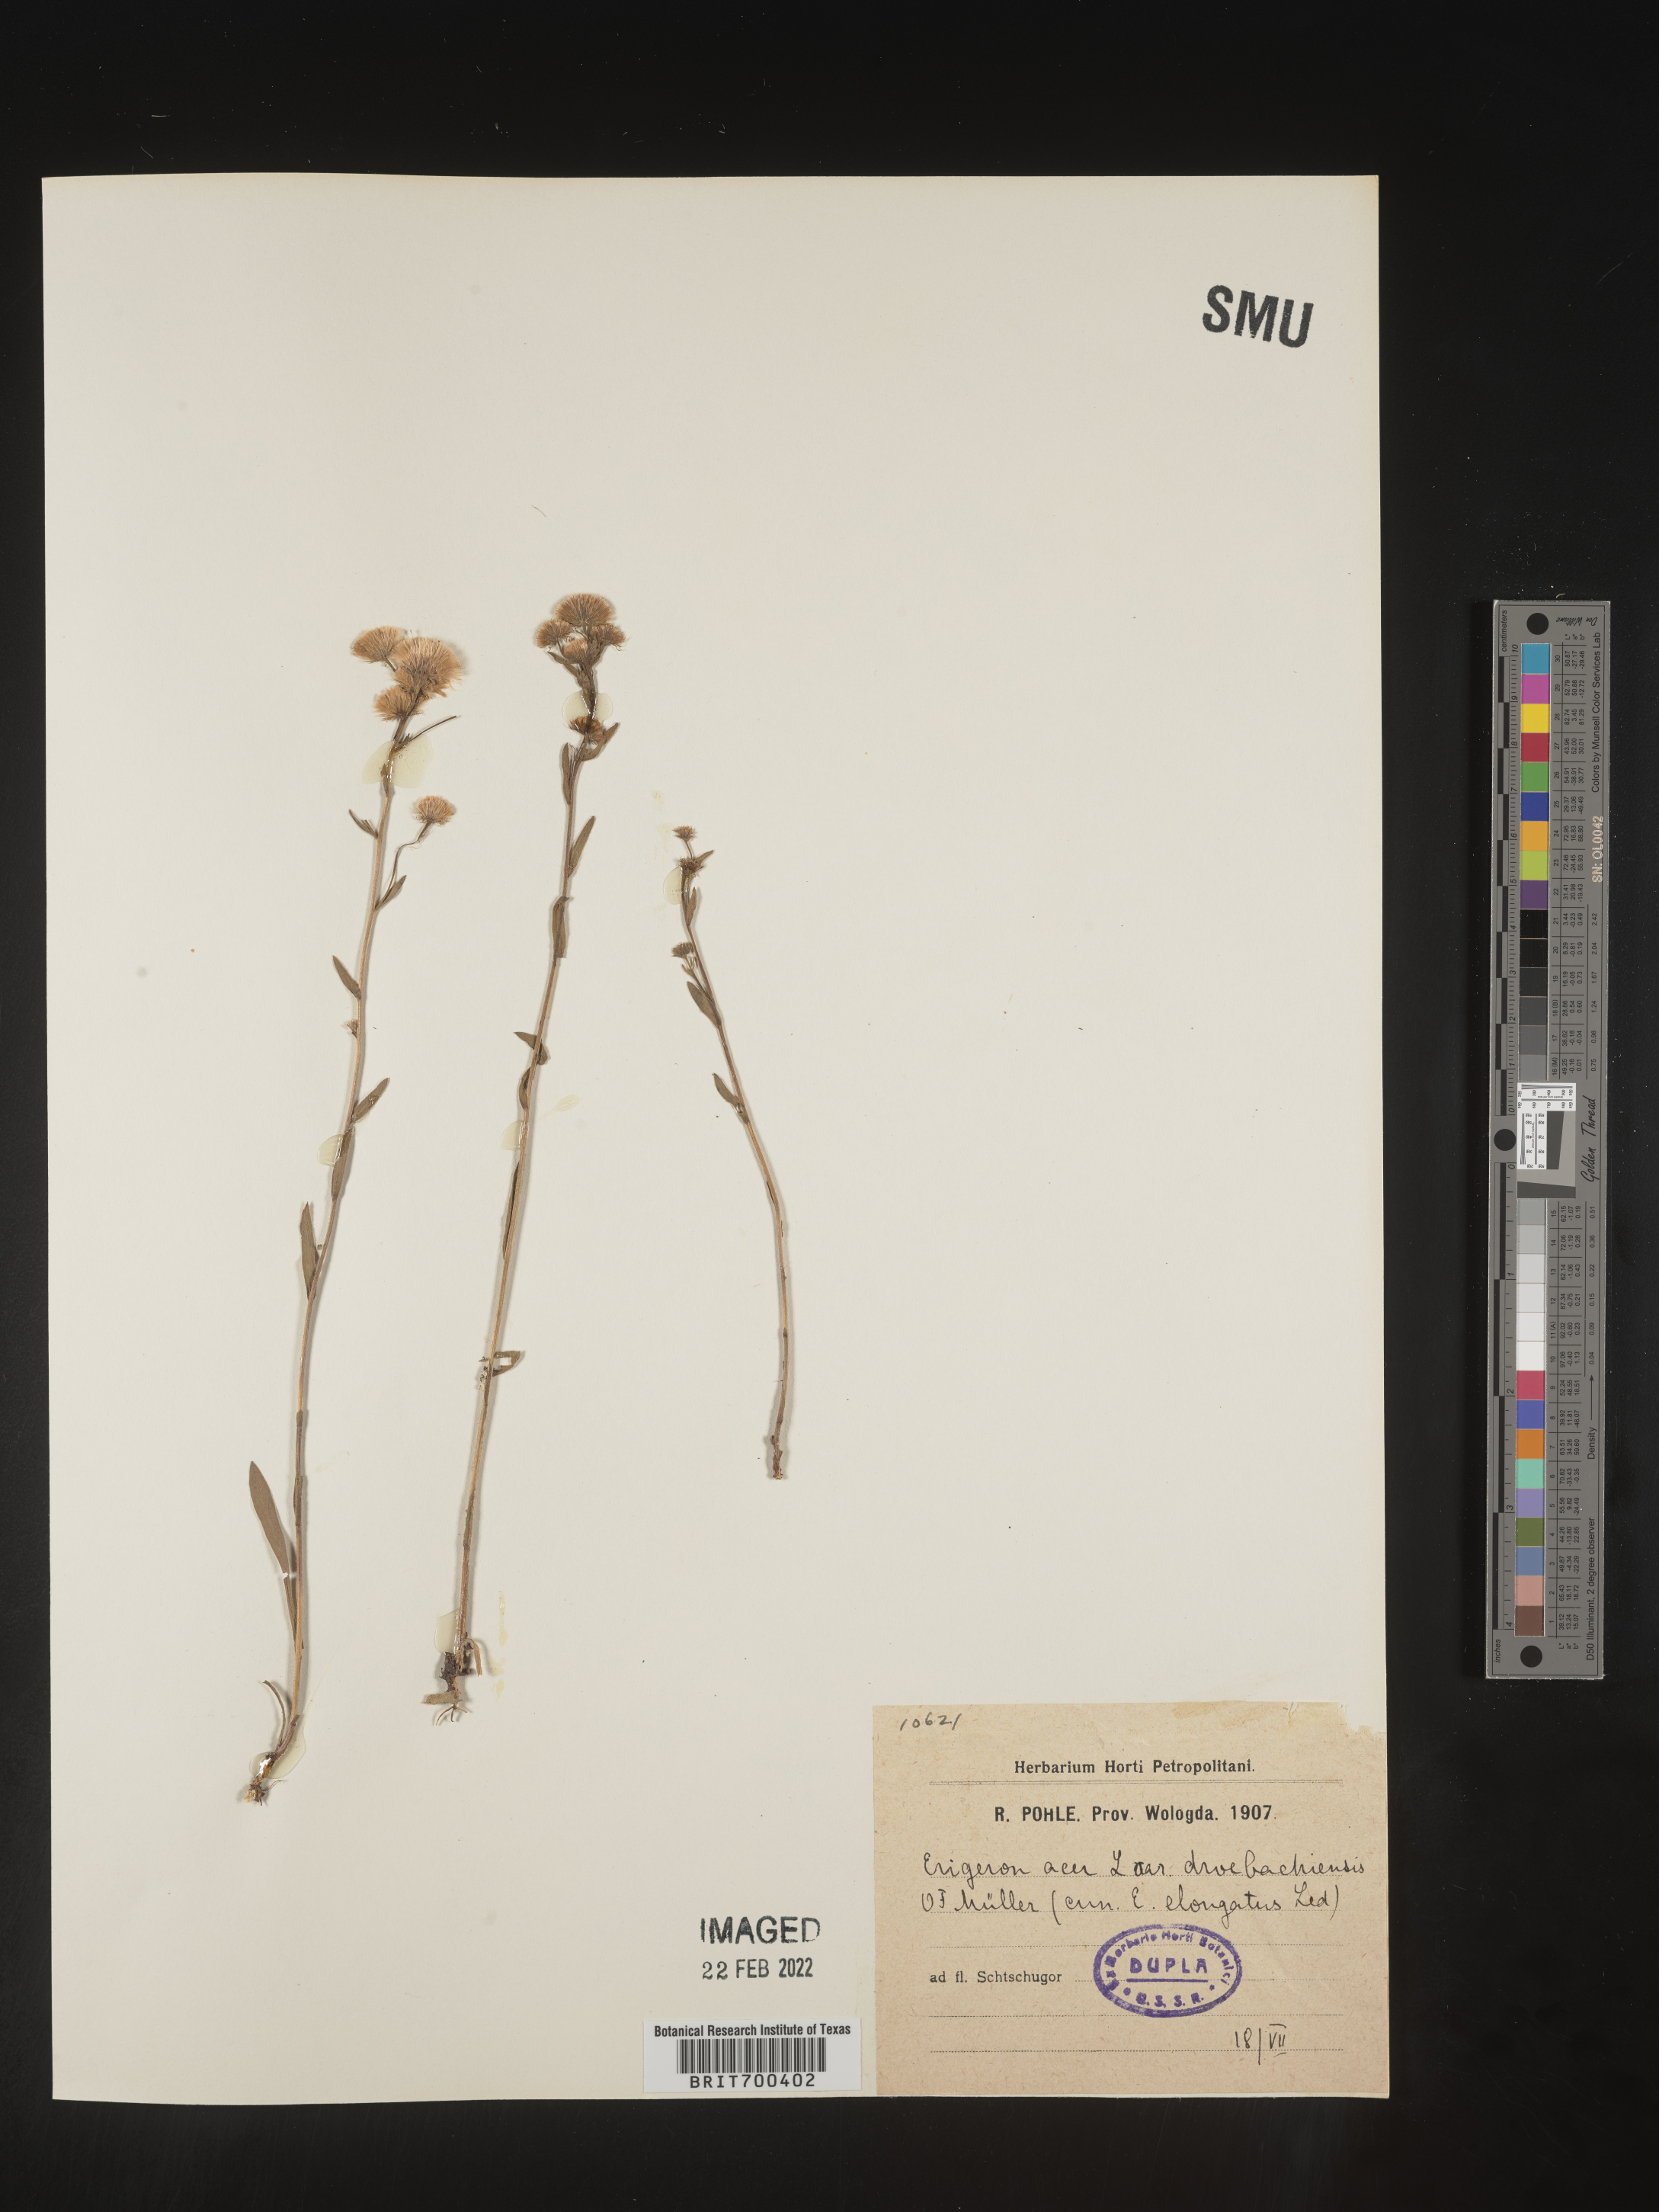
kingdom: Plantae
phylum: Tracheophyta
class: Magnoliopsida
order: Asterales
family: Asteraceae
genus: Erigeron
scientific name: Erigeron
